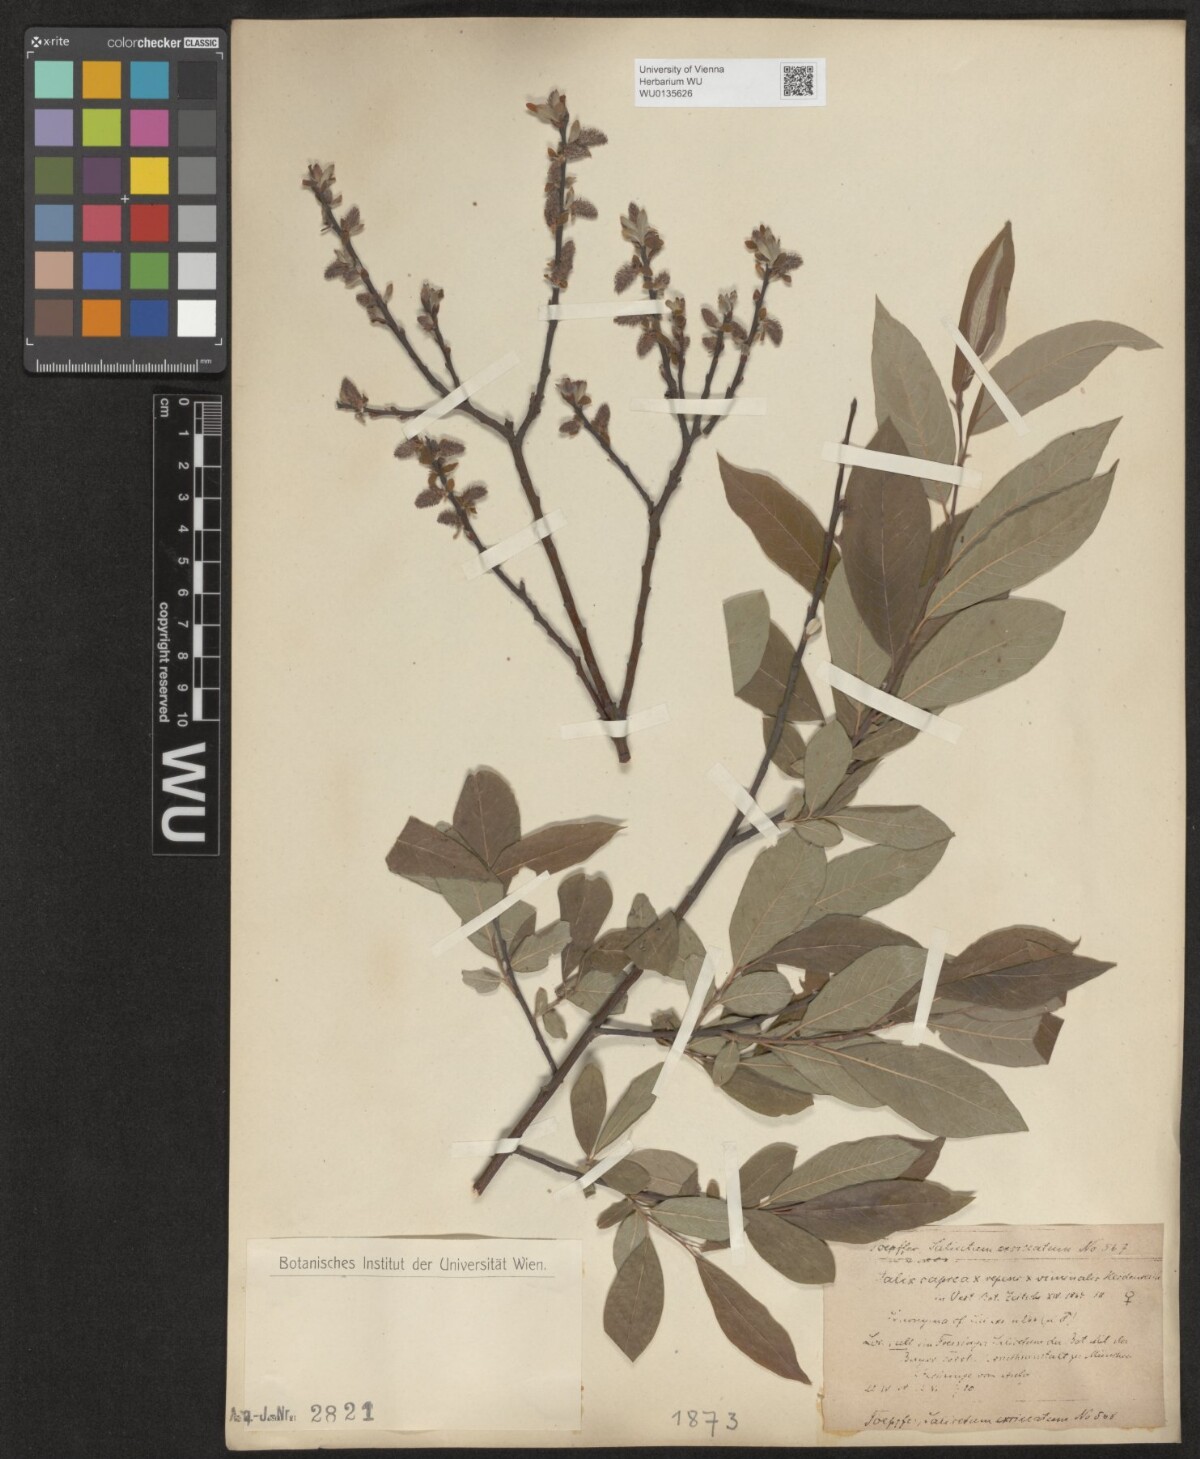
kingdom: Plantae
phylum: Tracheophyta
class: Magnoliopsida
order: Malpighiales
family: Salicaceae
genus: Salix
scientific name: Salix
